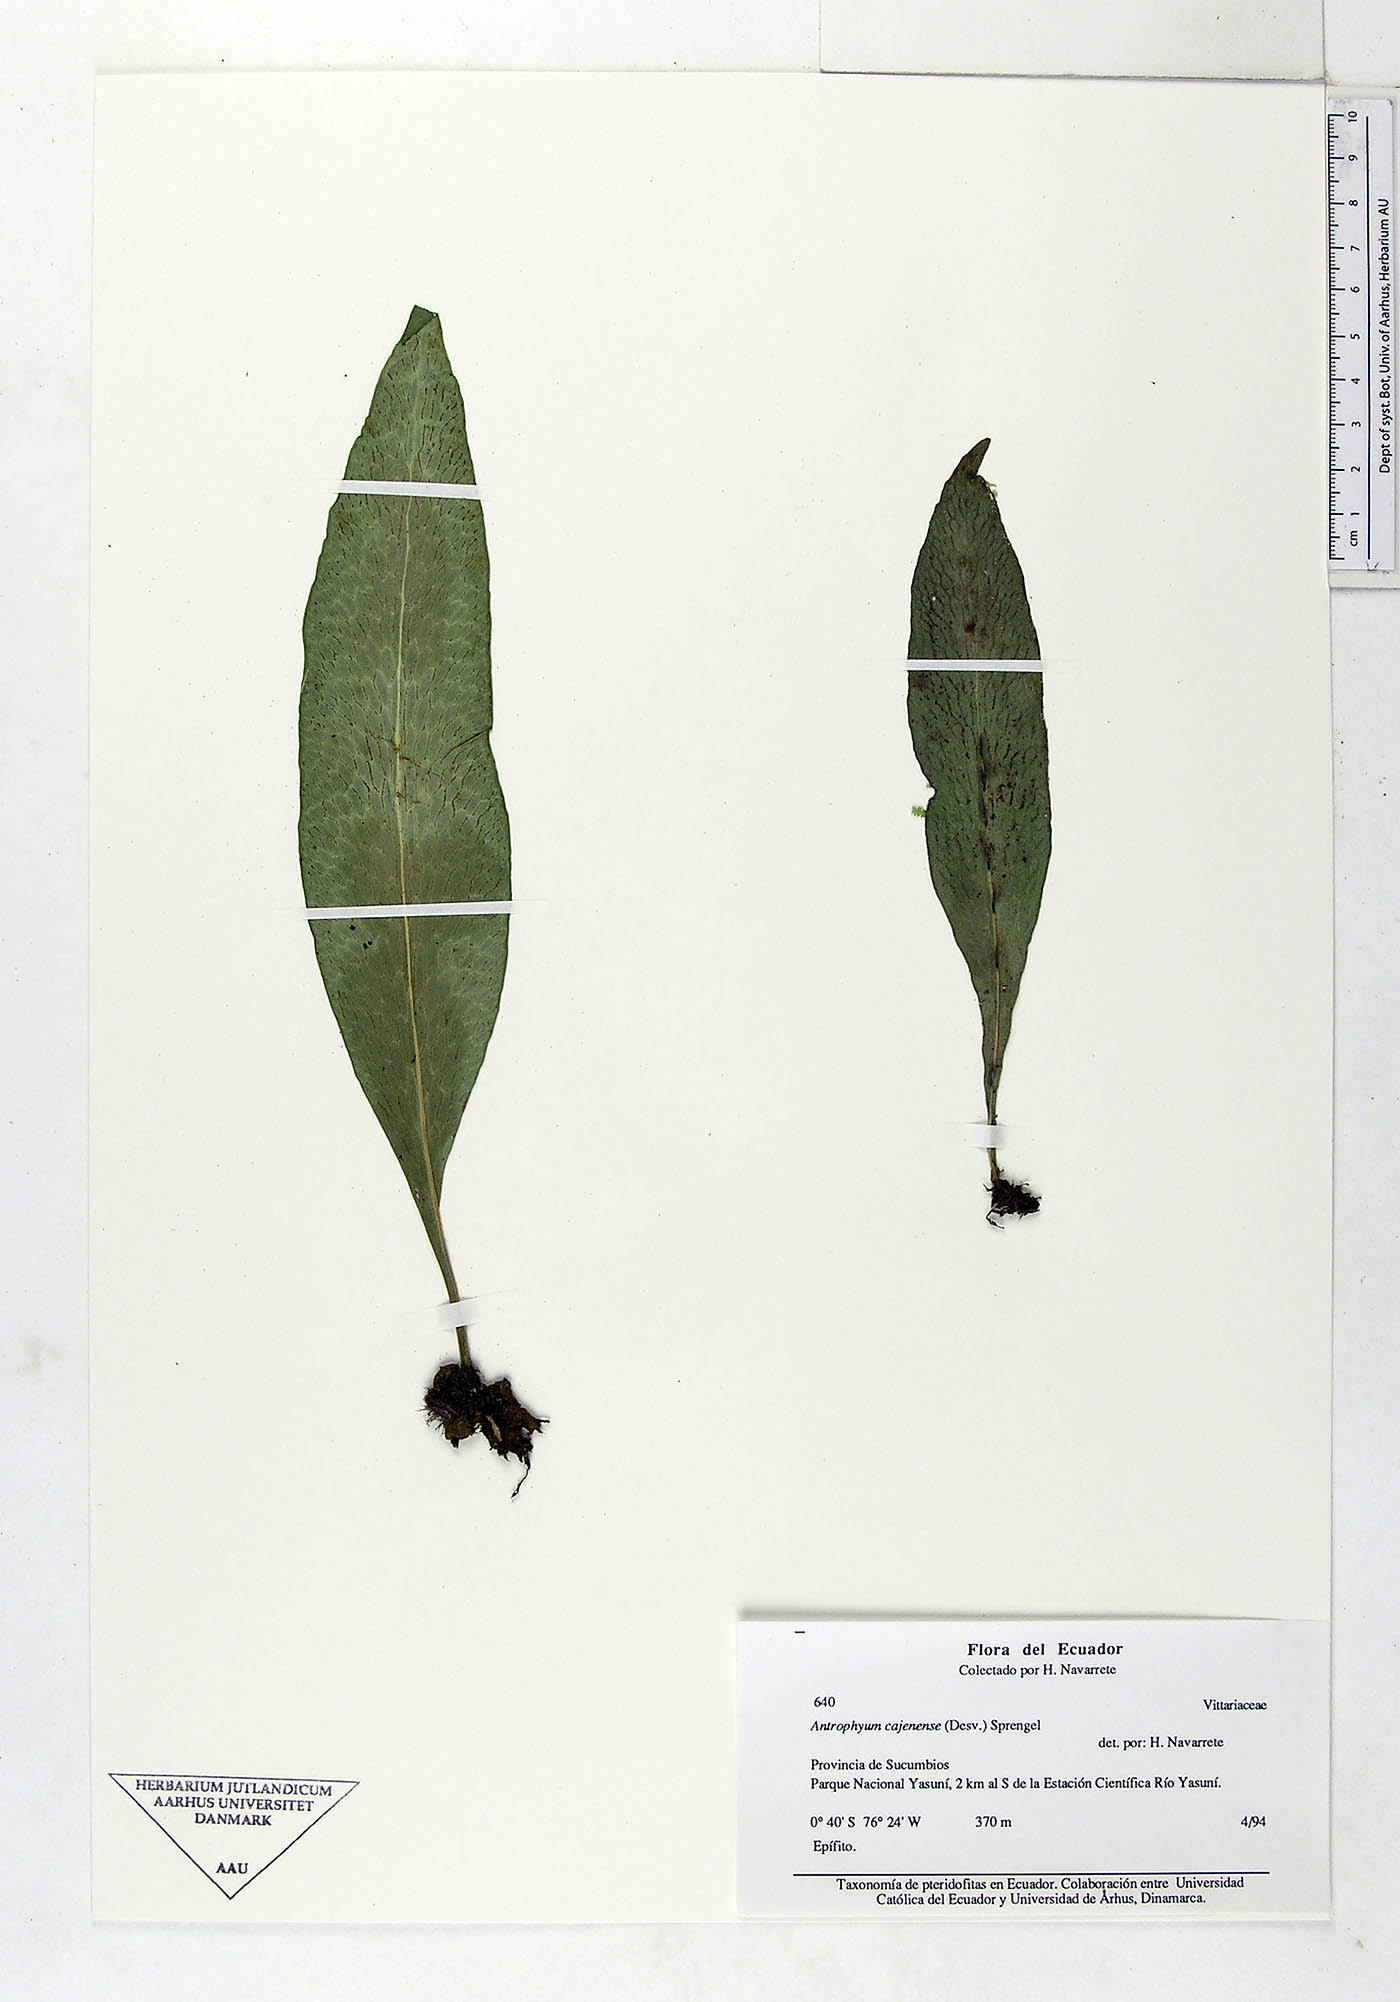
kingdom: Plantae
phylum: Tracheophyta
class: Polypodiopsida
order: Polypodiales
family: Pteridaceae
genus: Polytaenium
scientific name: Polytaenium cajenense
